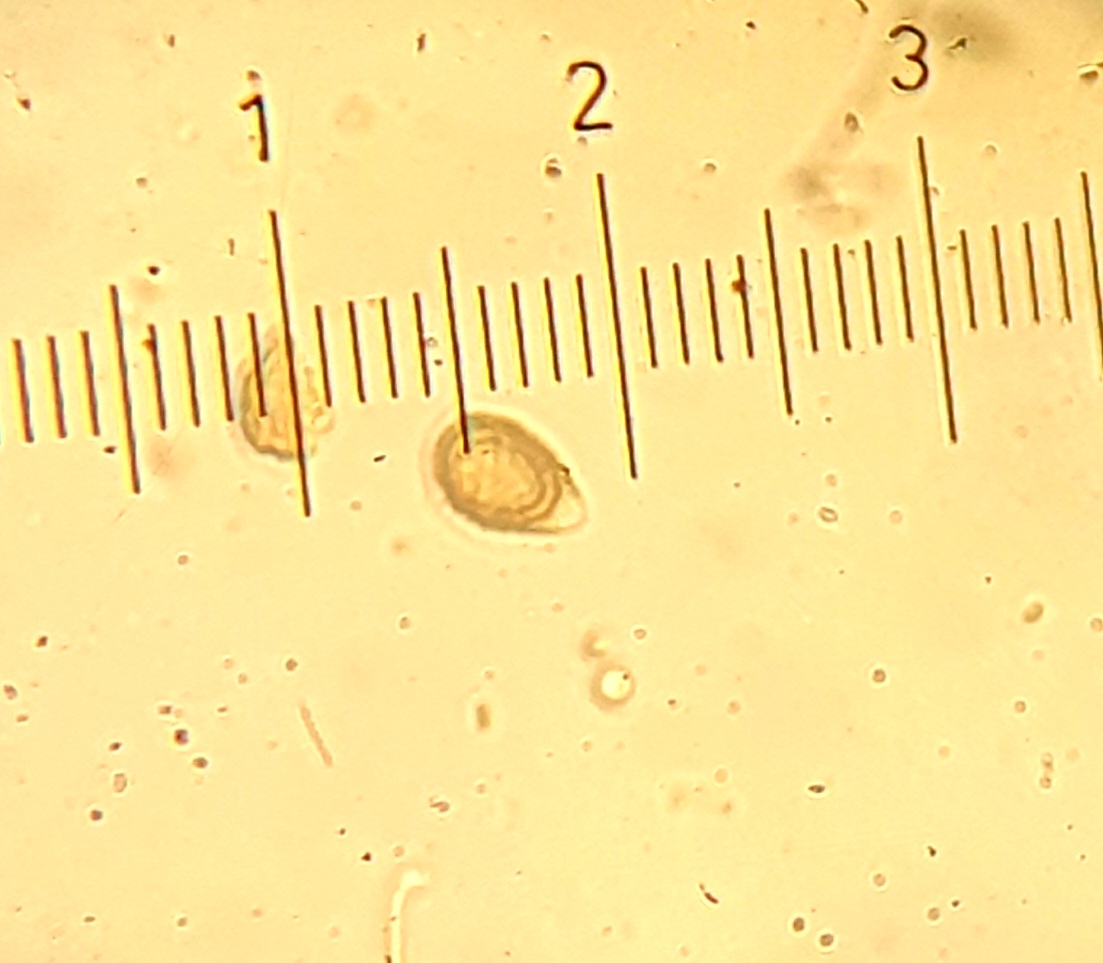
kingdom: Fungi
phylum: Basidiomycota
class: Agaricomycetes
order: Polyporales
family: Polyporaceae
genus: Ganoderma
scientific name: Ganoderma
